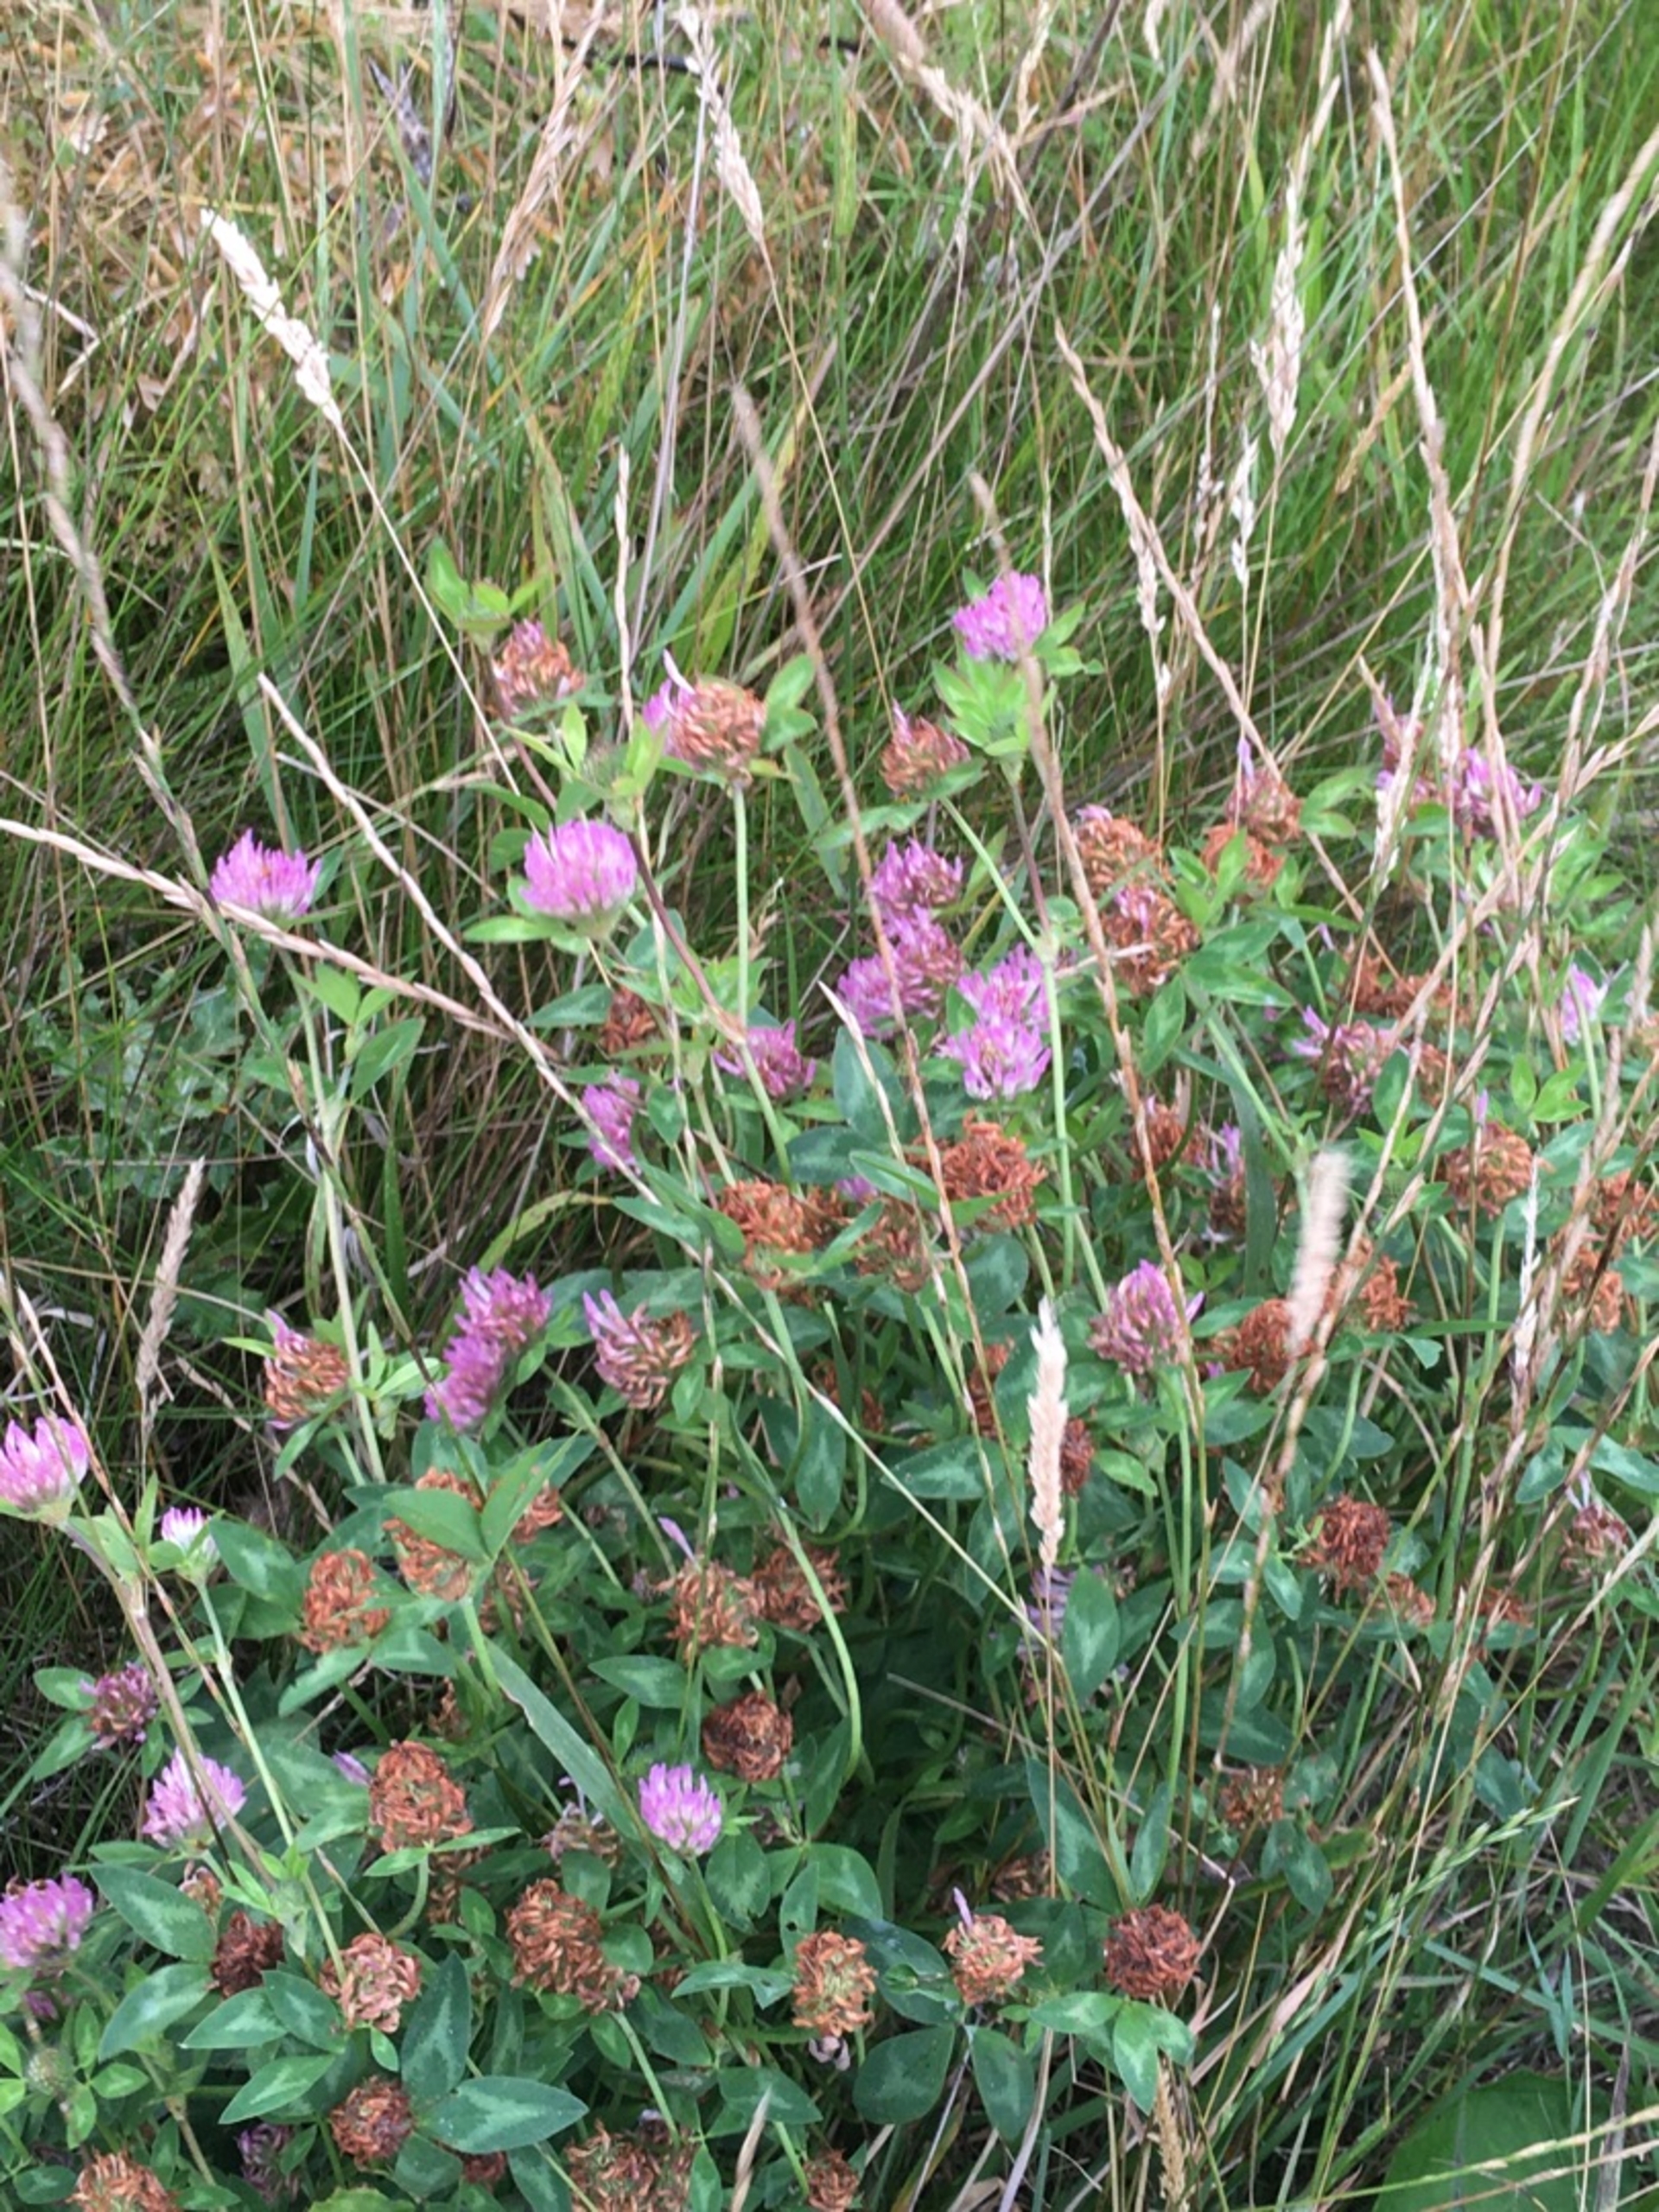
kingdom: Plantae
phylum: Tracheophyta
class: Magnoliopsida
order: Fabales
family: Fabaceae
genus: Trifolium
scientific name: Trifolium pratense
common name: Rød-kløver
